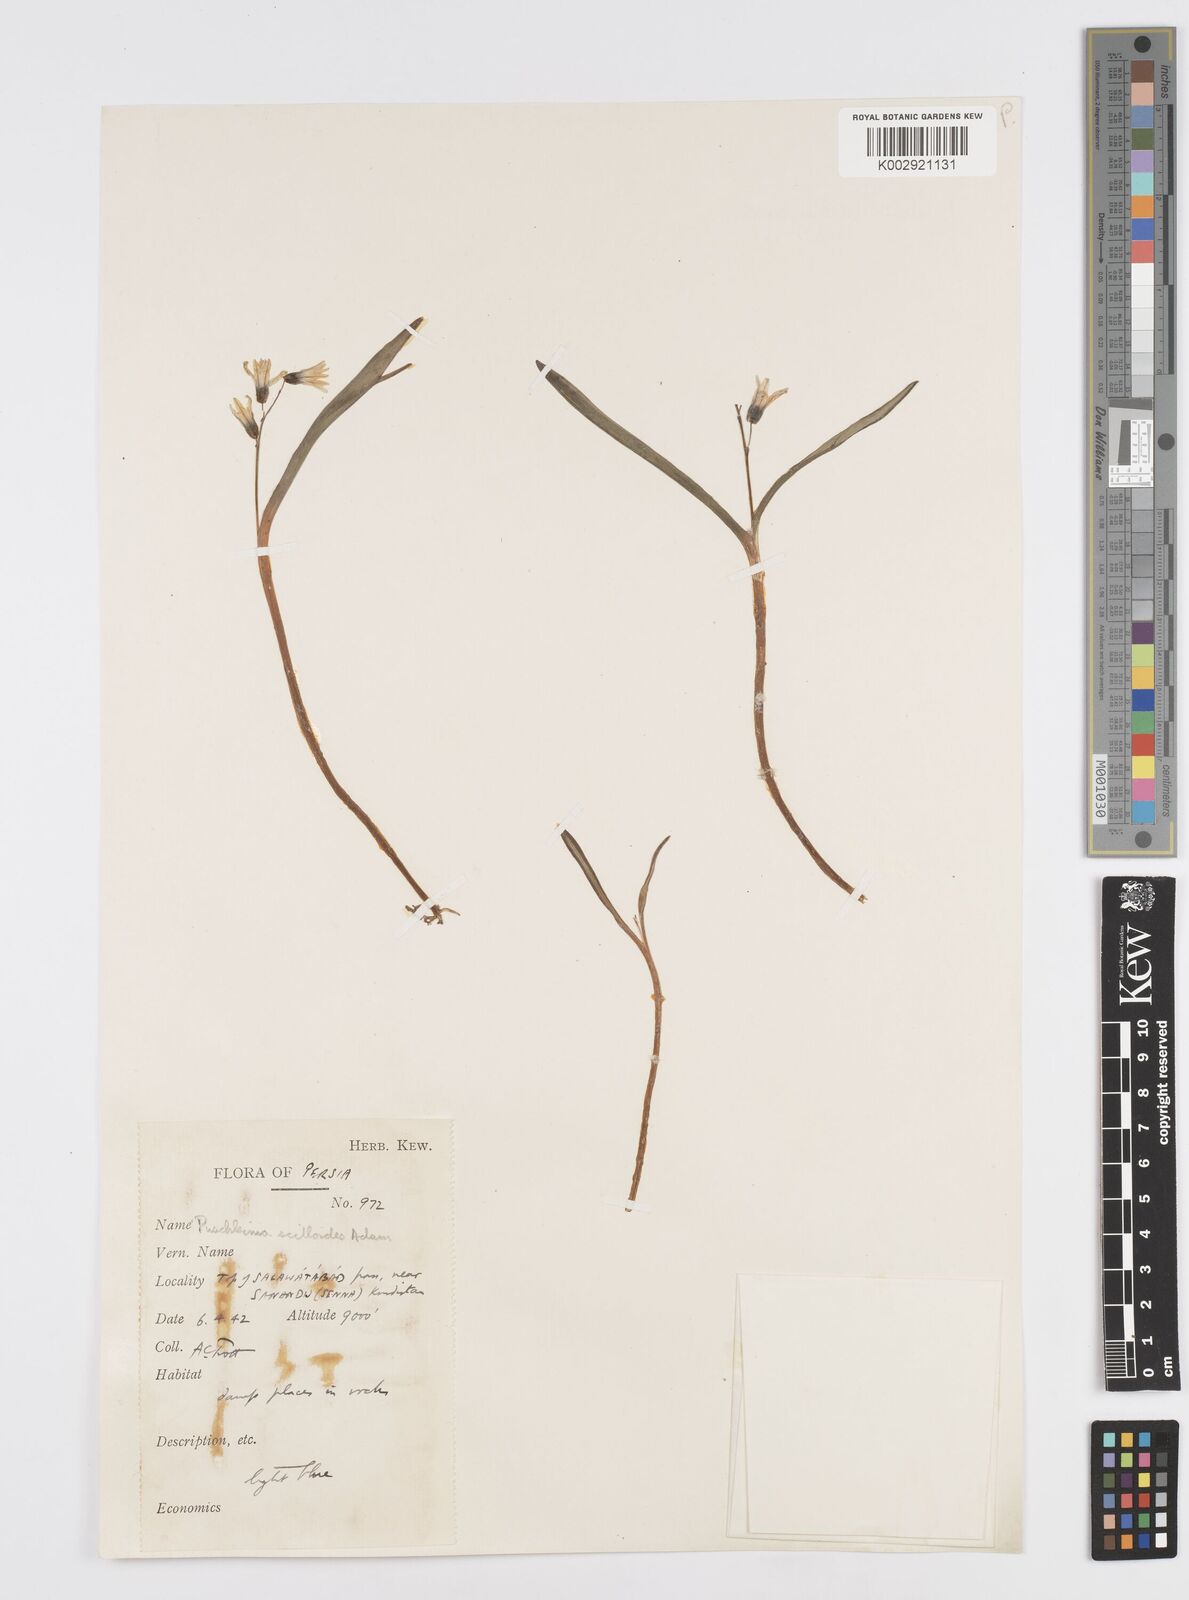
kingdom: Plantae
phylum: Tracheophyta
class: Liliopsida
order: Asparagales
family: Asparagaceae
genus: Puschkinia
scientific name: Puschkinia scilloides
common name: Striped squill
